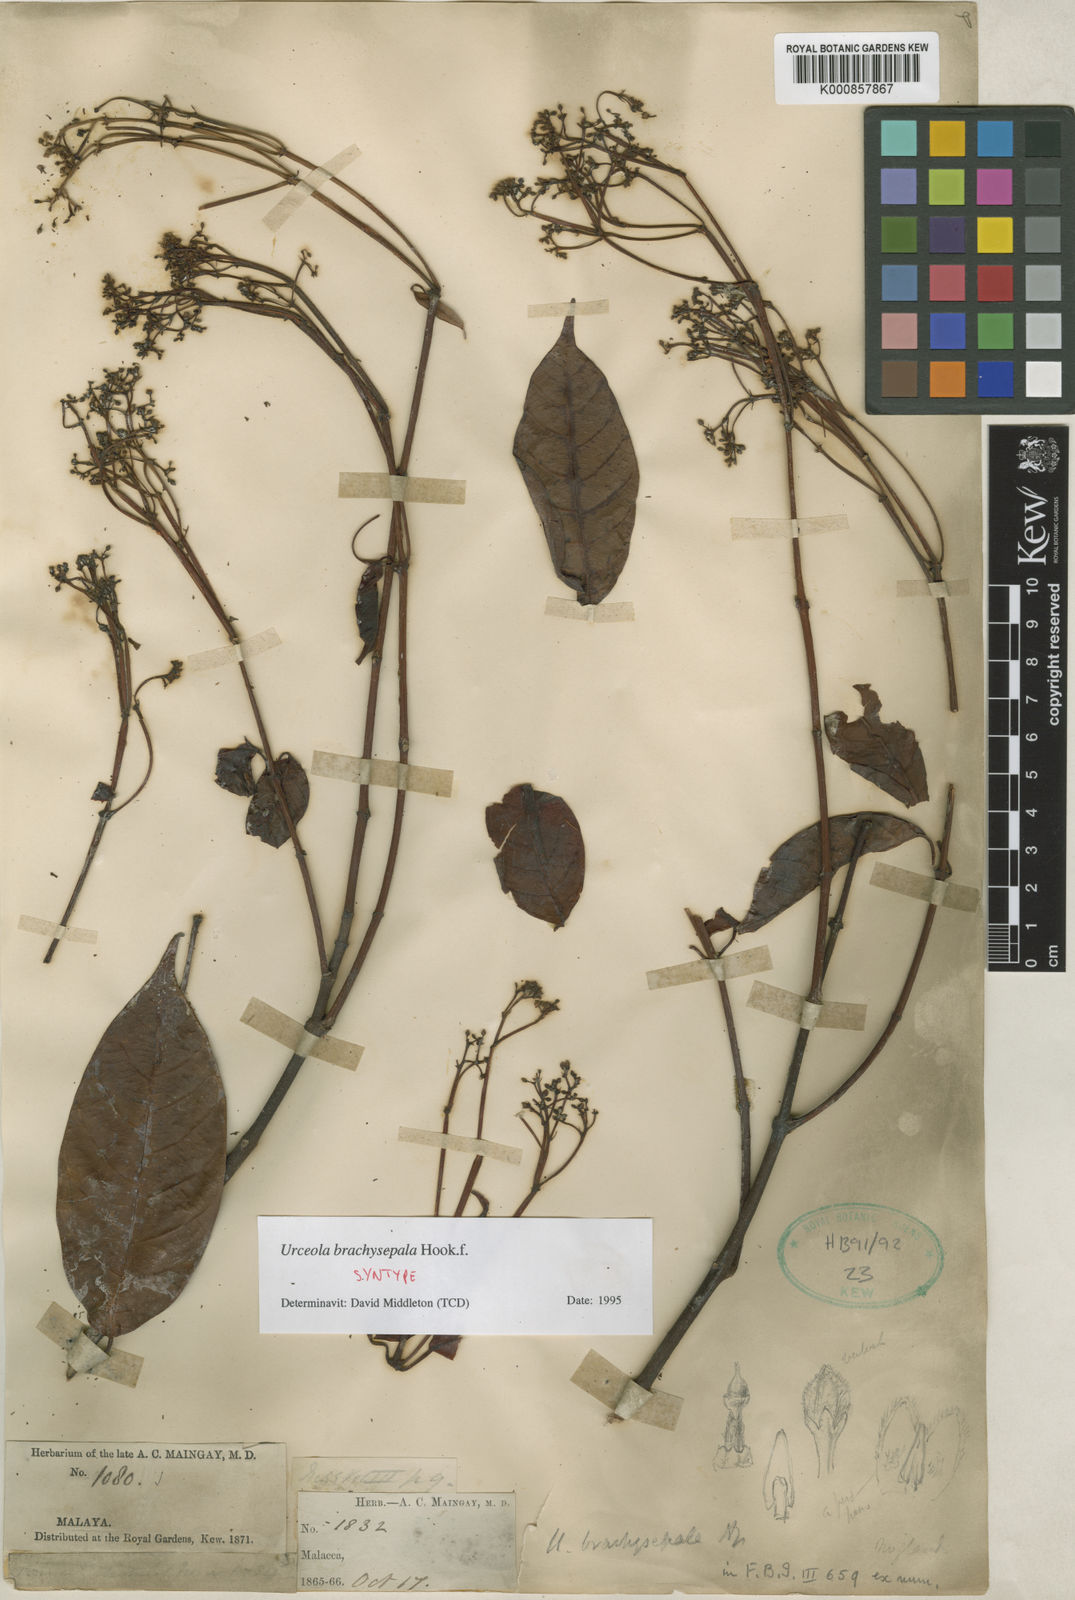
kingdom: Plantae
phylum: Tracheophyta
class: Magnoliopsida
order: Gentianales
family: Apocynaceae
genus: Urceola
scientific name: Urceola brachysepala
